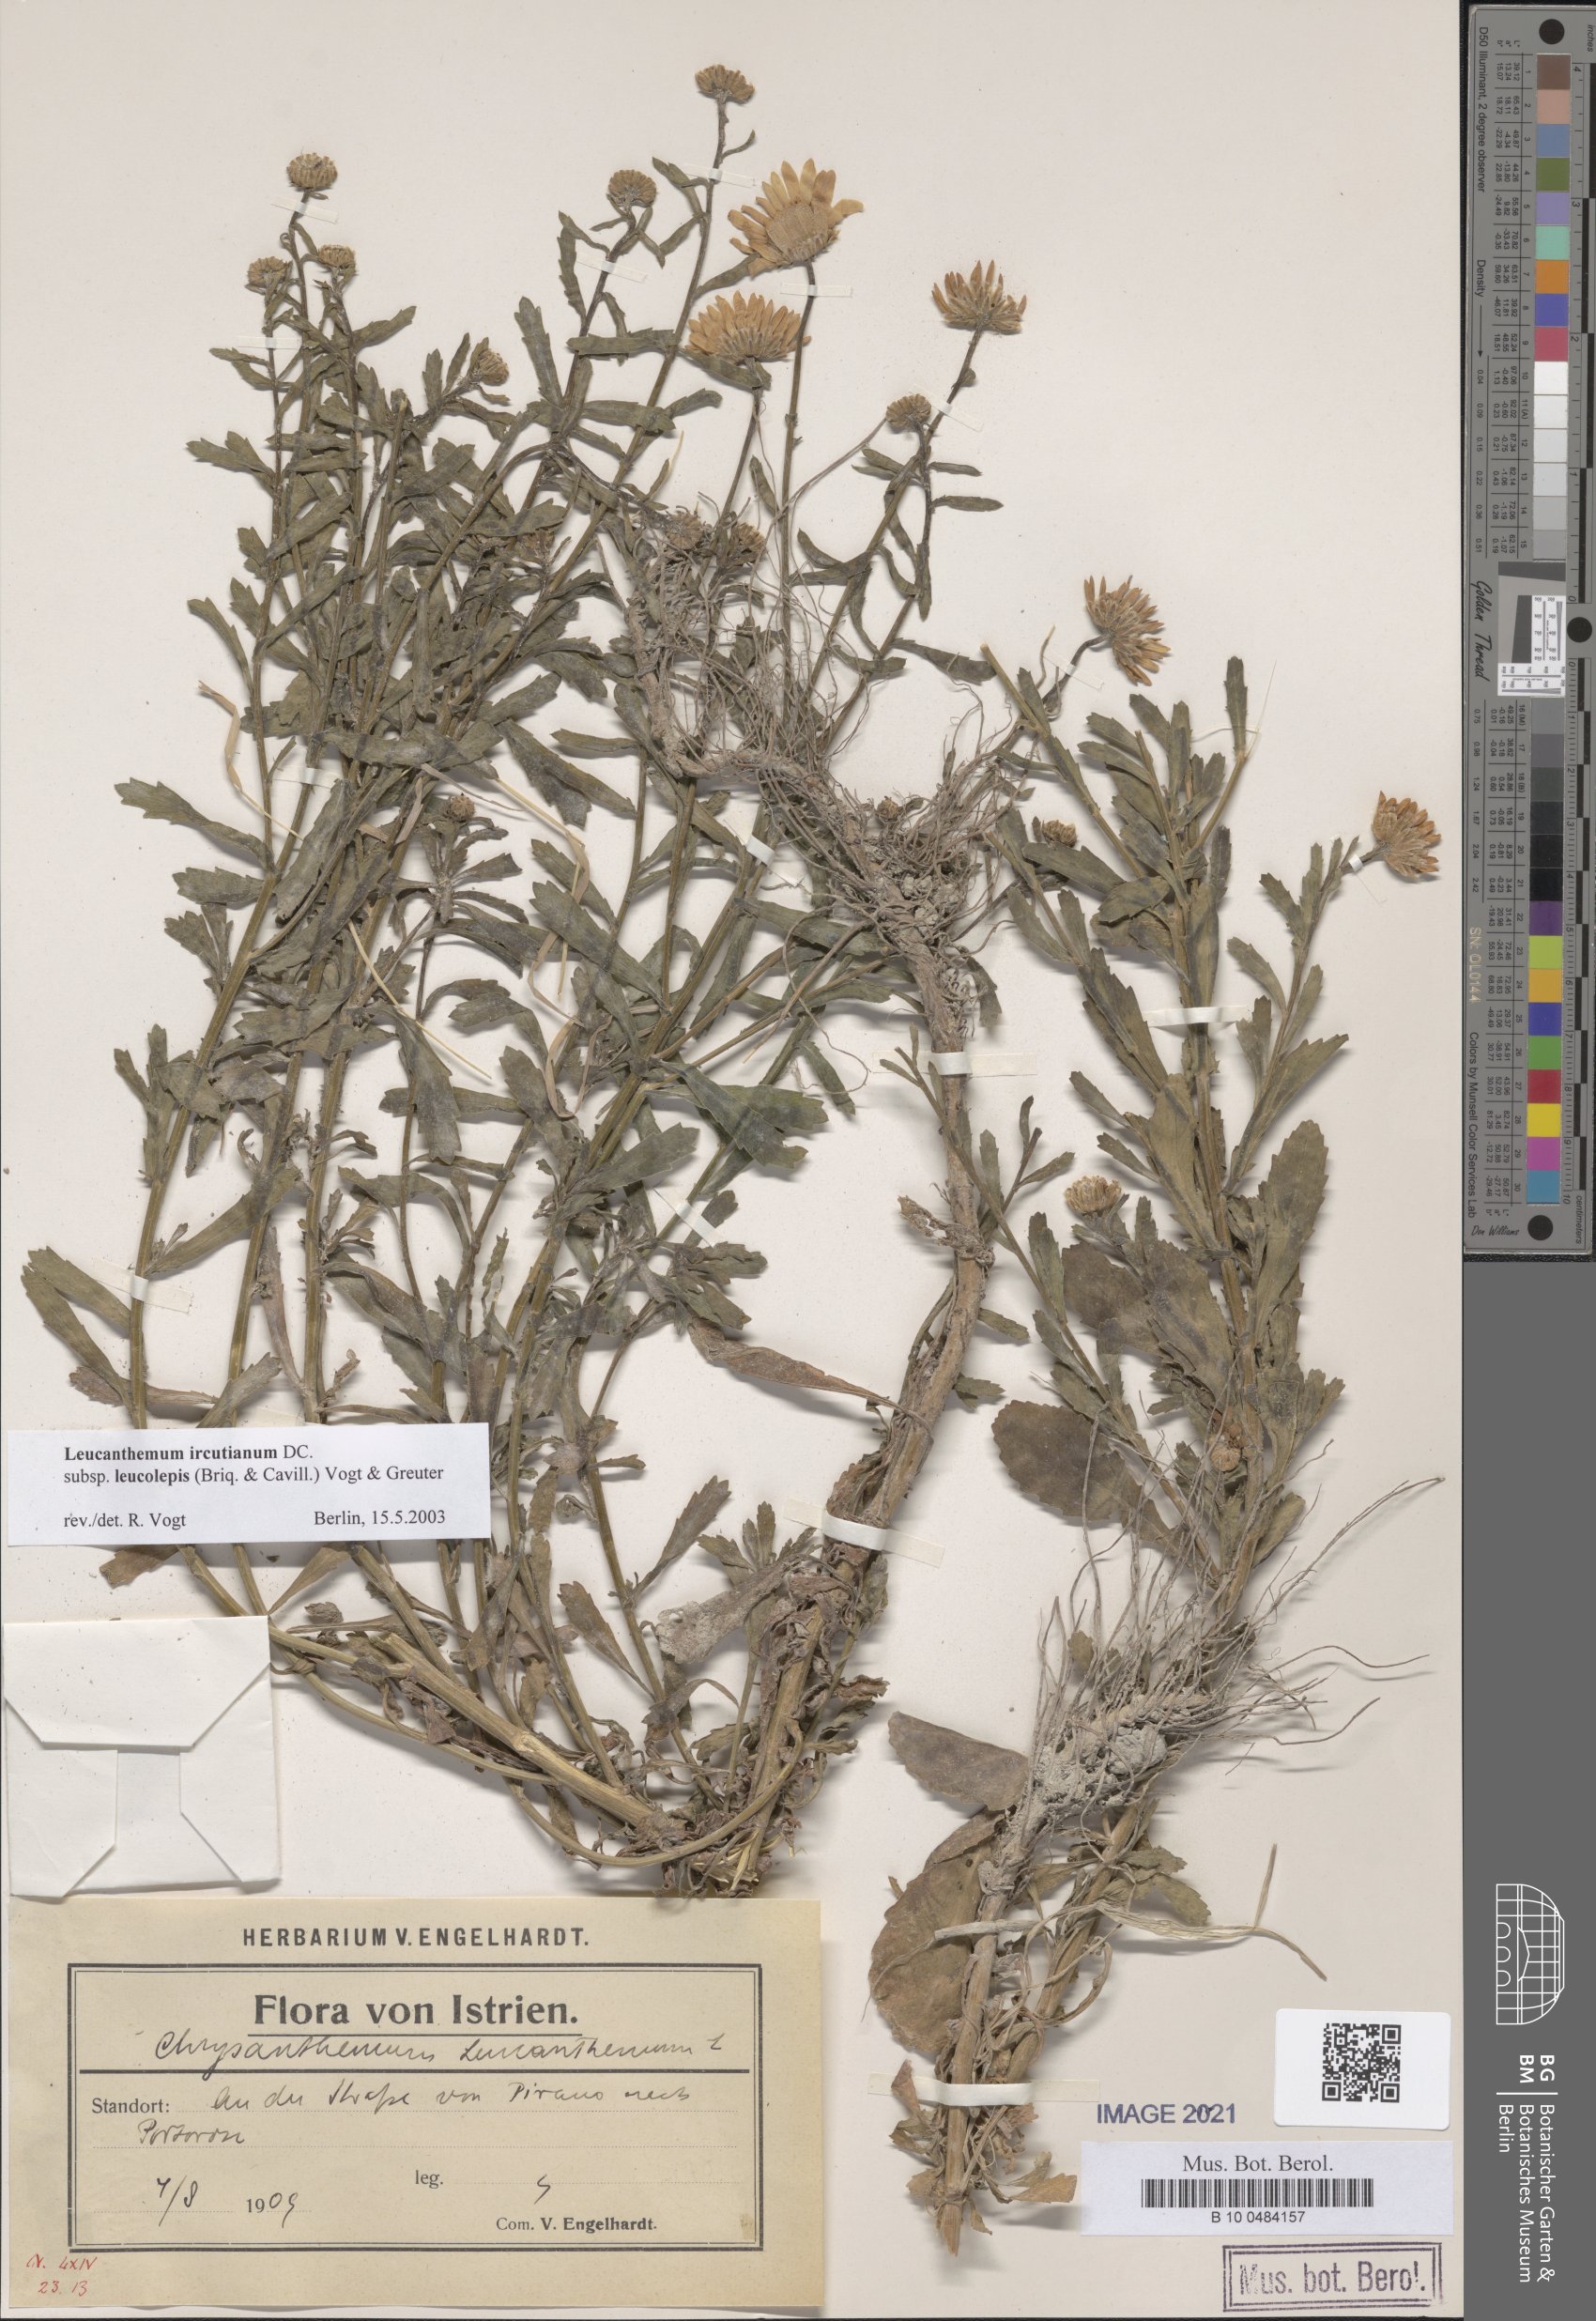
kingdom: Plantae
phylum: Tracheophyta
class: Magnoliopsida
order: Asterales
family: Asteraceae
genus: Leucanthemum
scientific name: Leucanthemum ircutianum
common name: Daisy
